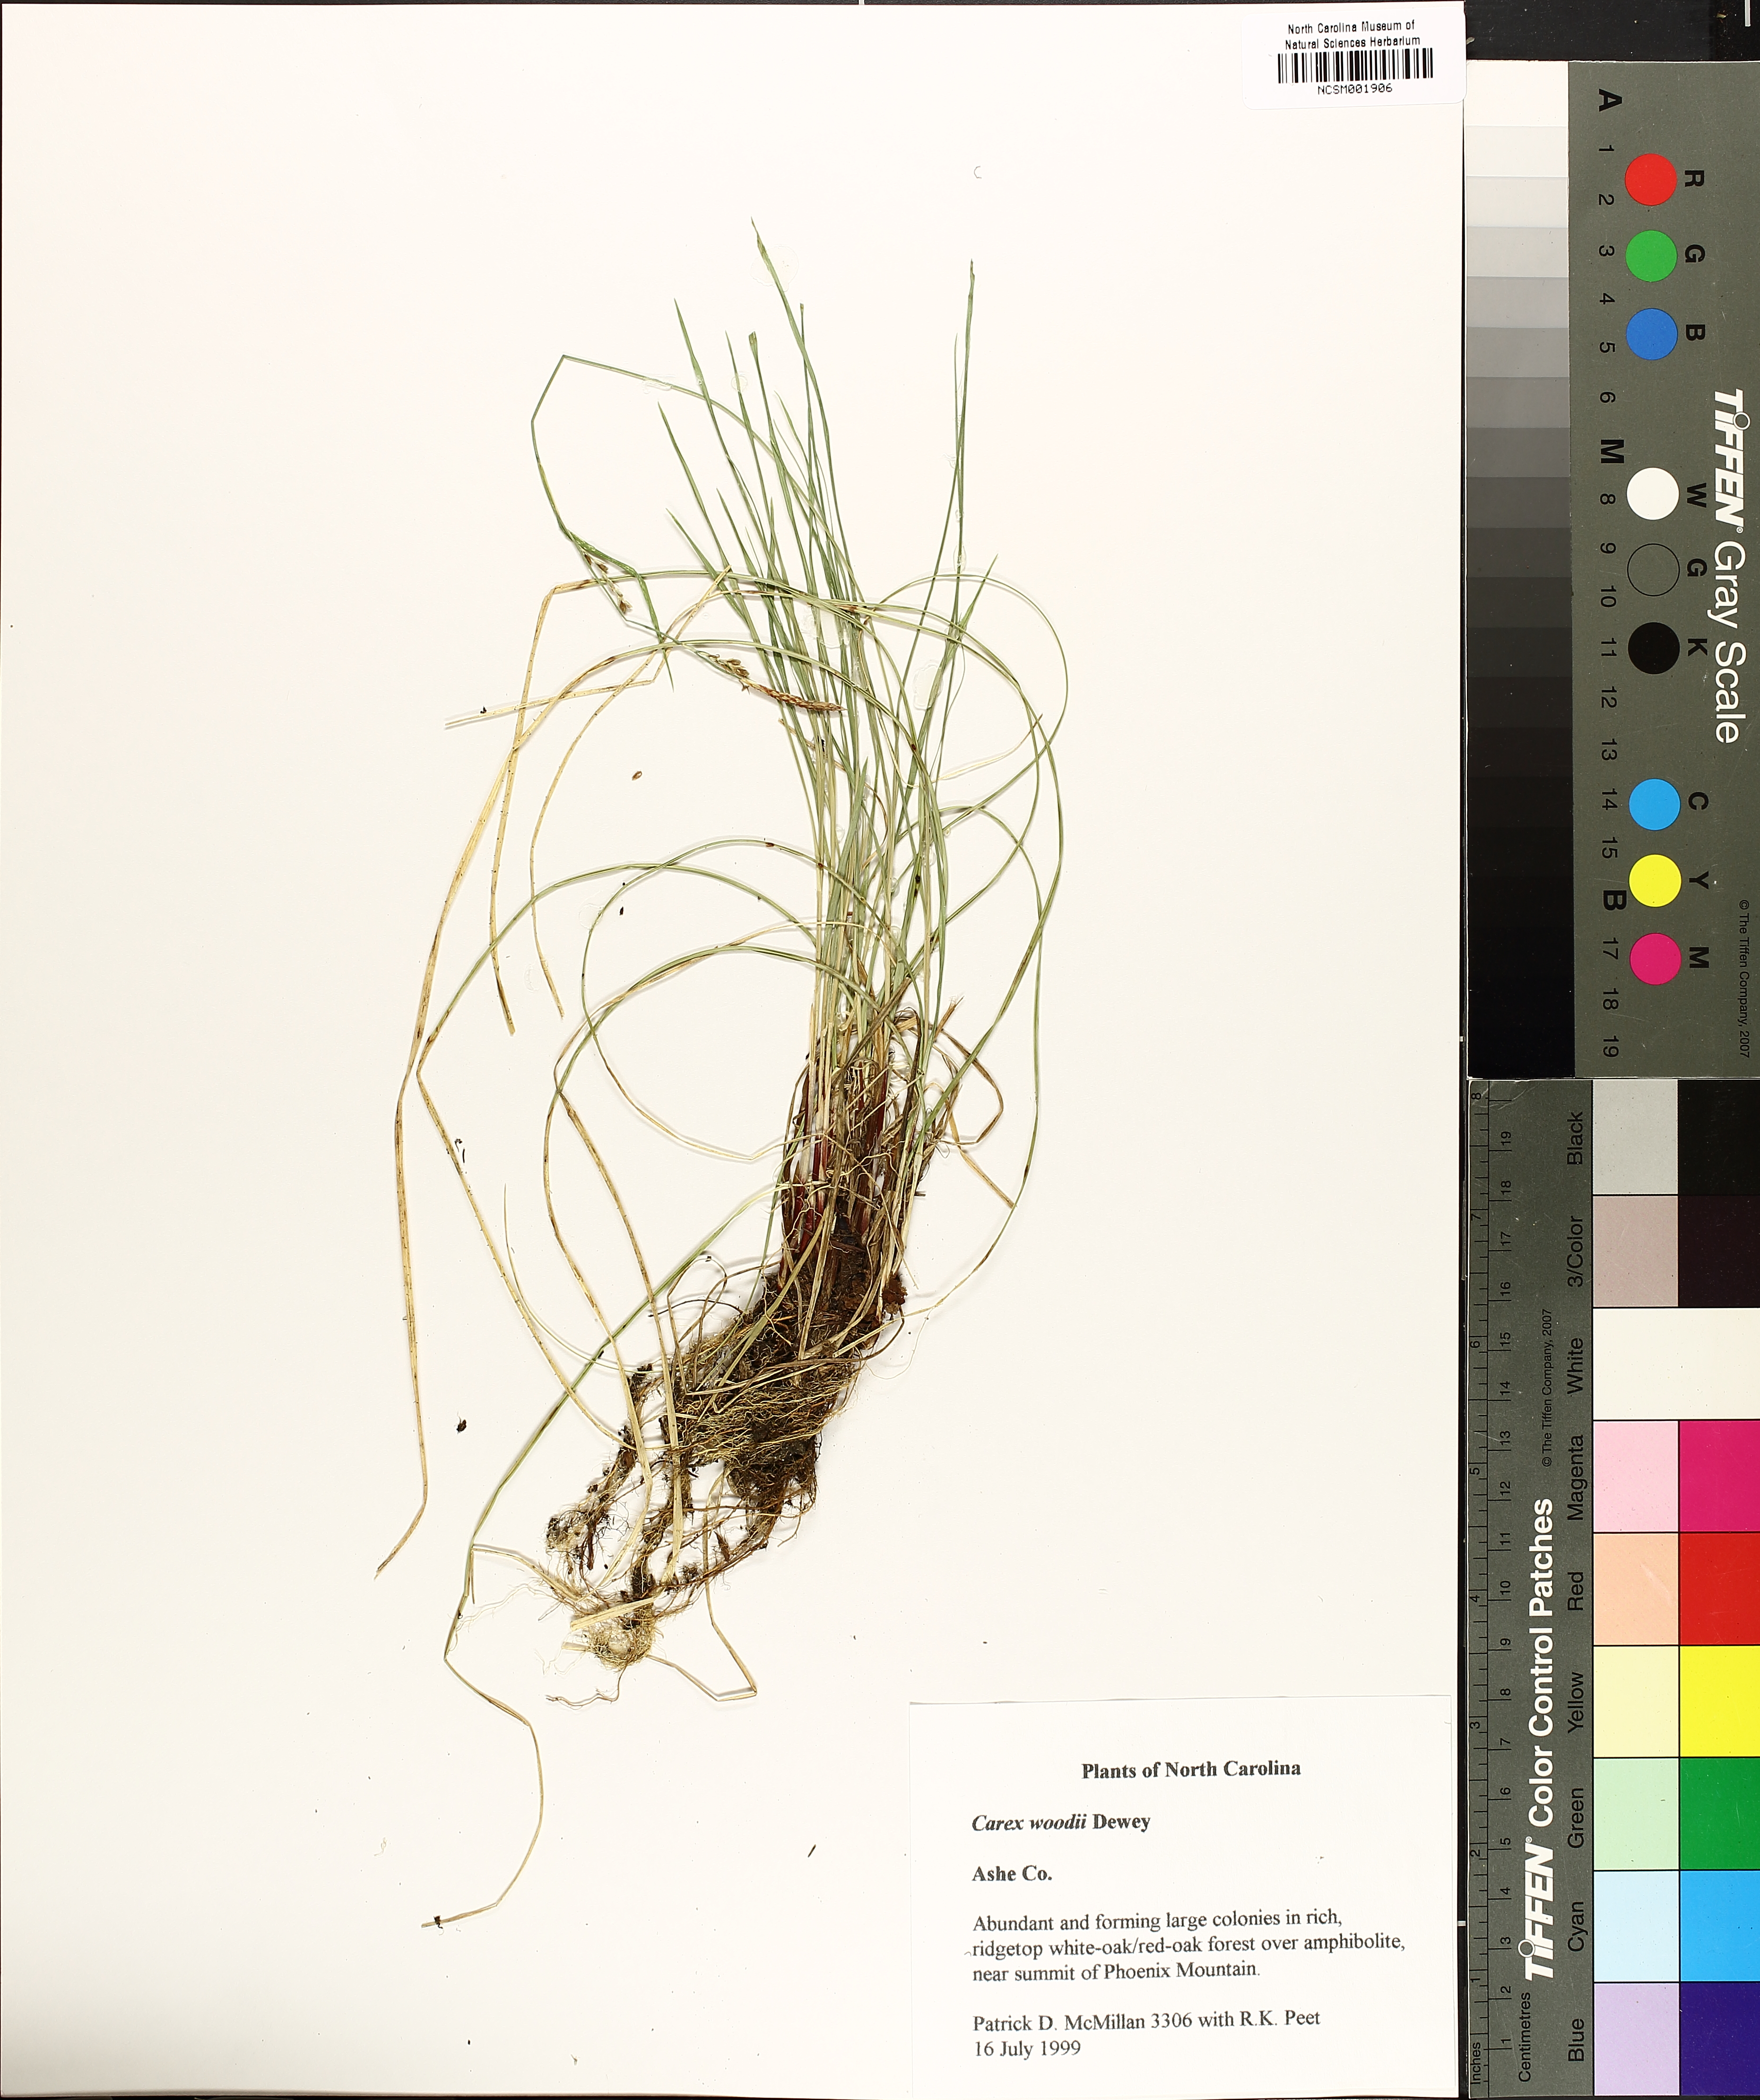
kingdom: Plantae
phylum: Tracheophyta
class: Liliopsida
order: Poales
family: Cyperaceae
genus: Carex
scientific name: Carex woodii
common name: Wood's sedge
